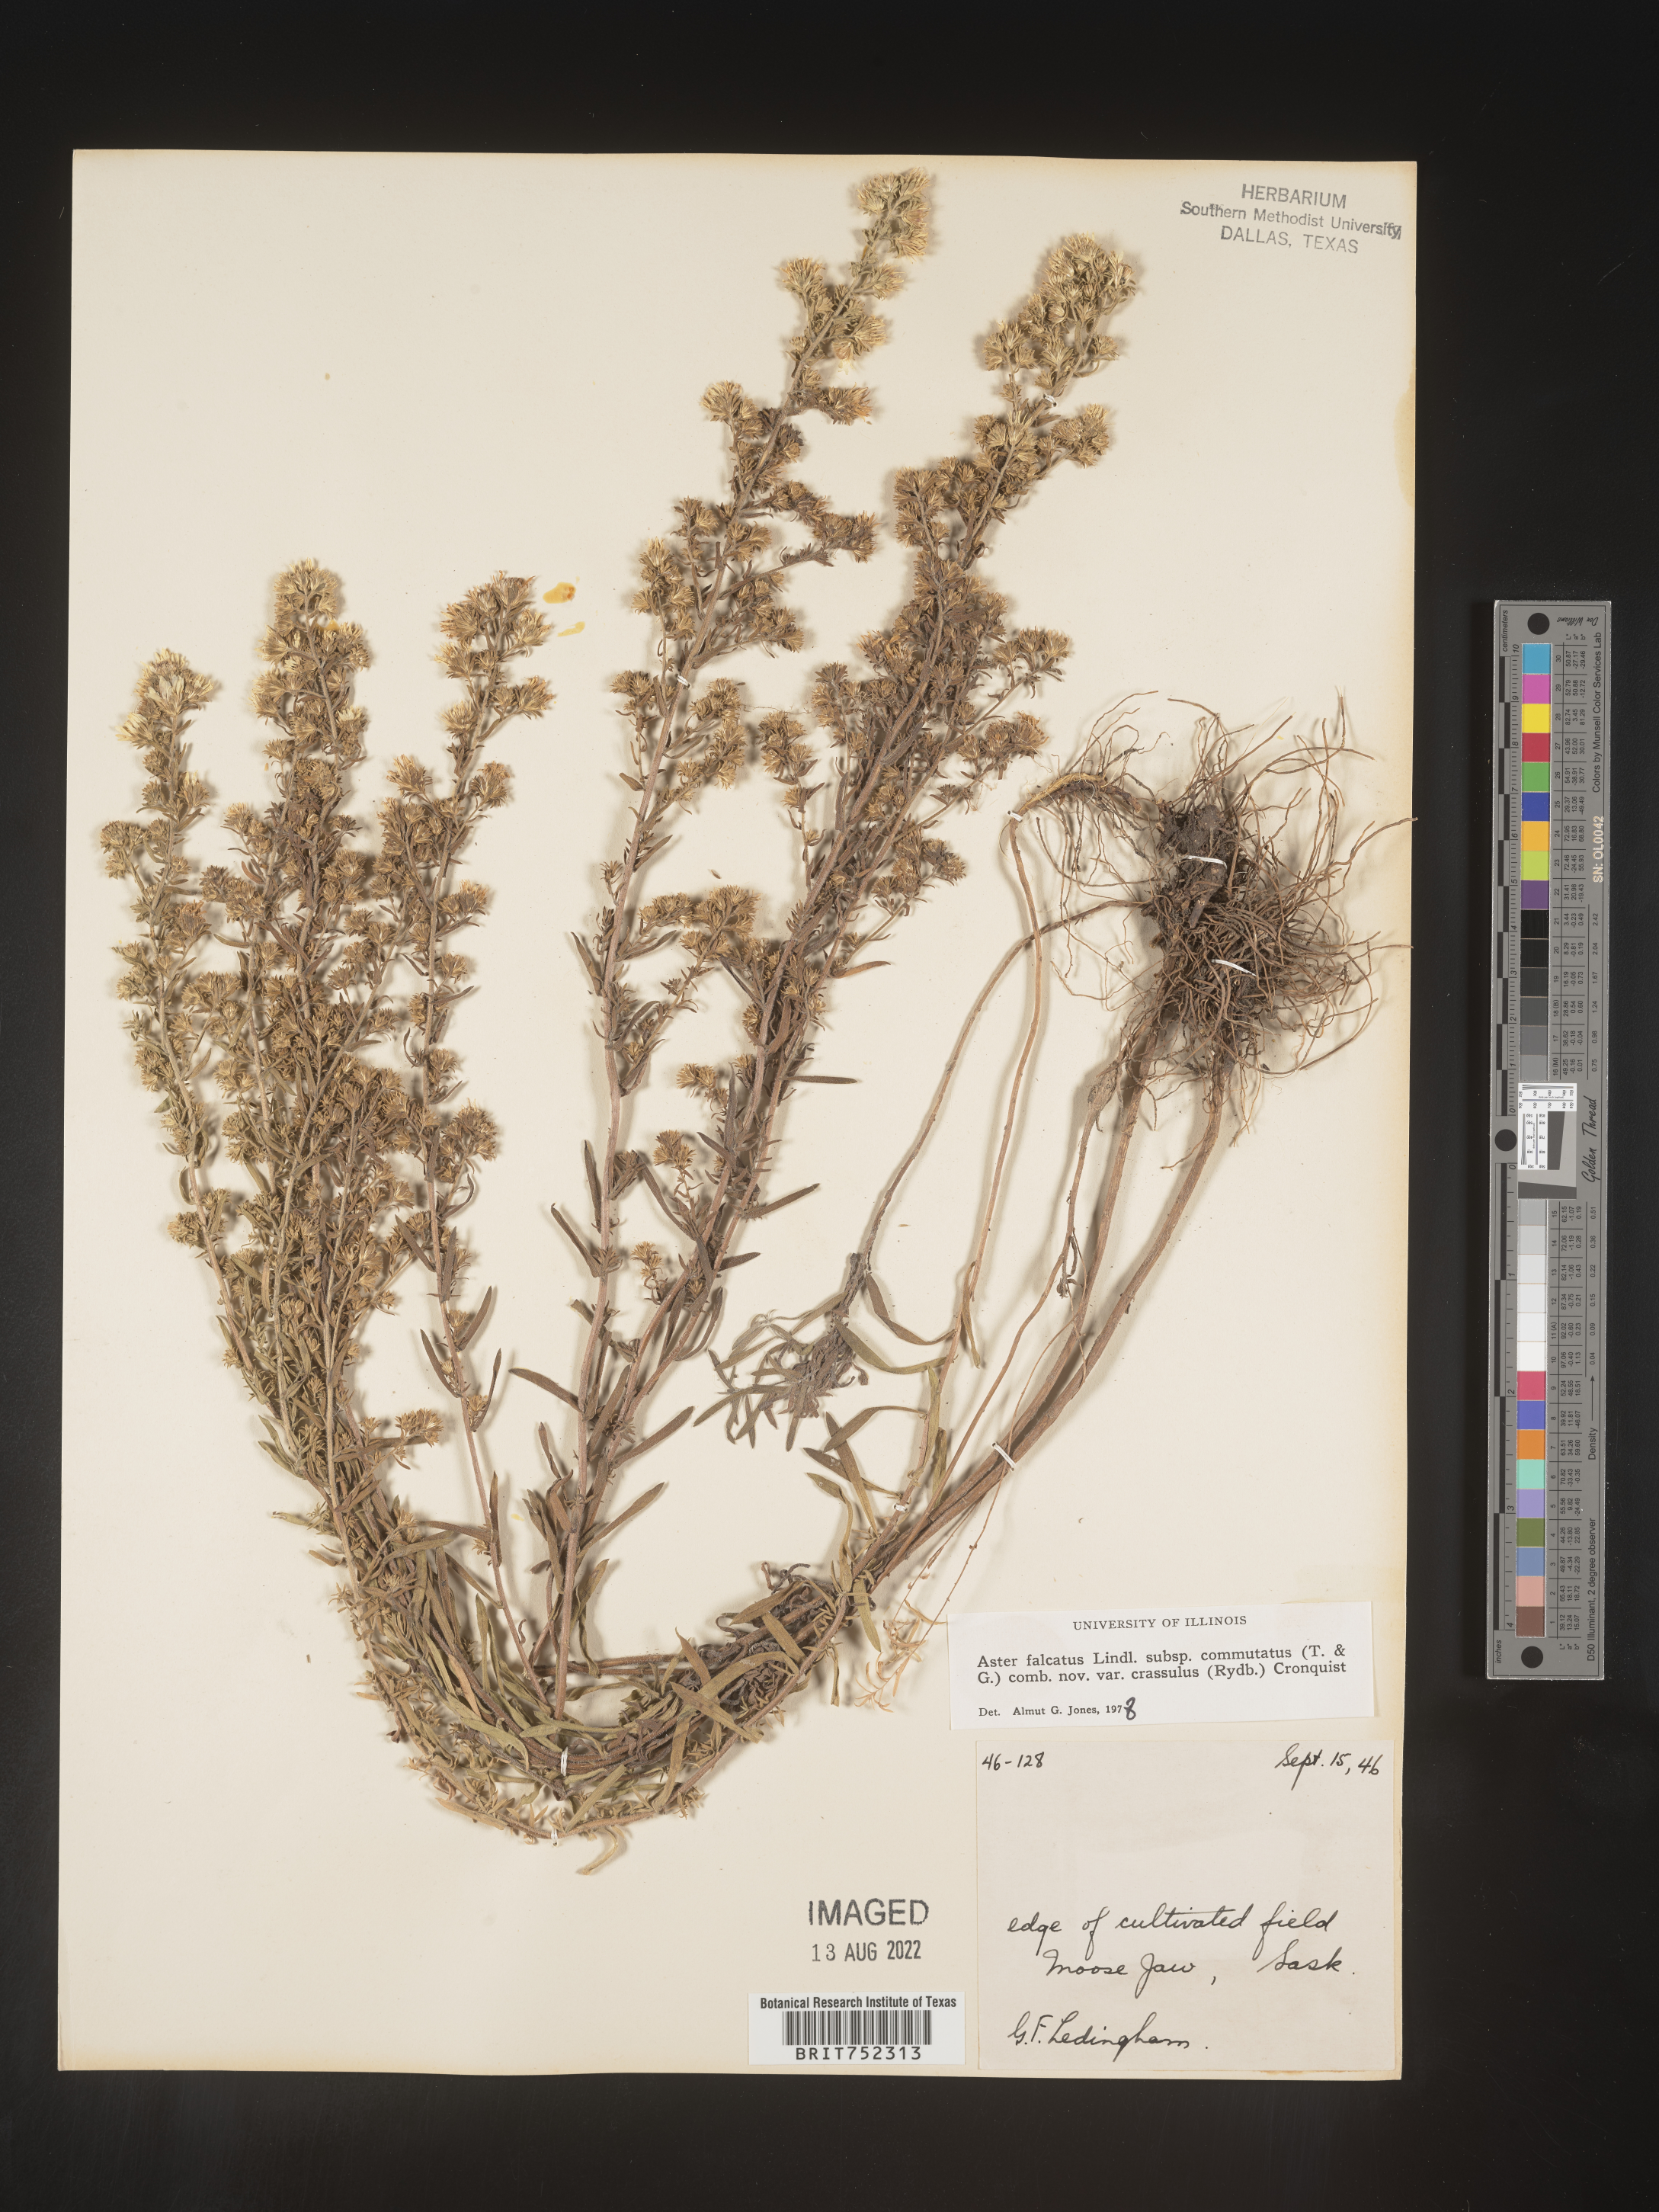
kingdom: Plantae
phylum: Tracheophyta
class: Magnoliopsida
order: Asterales
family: Asteraceae
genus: Symphyotrichum
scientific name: Symphyotrichum falcatum
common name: Creeping white prairie aster
